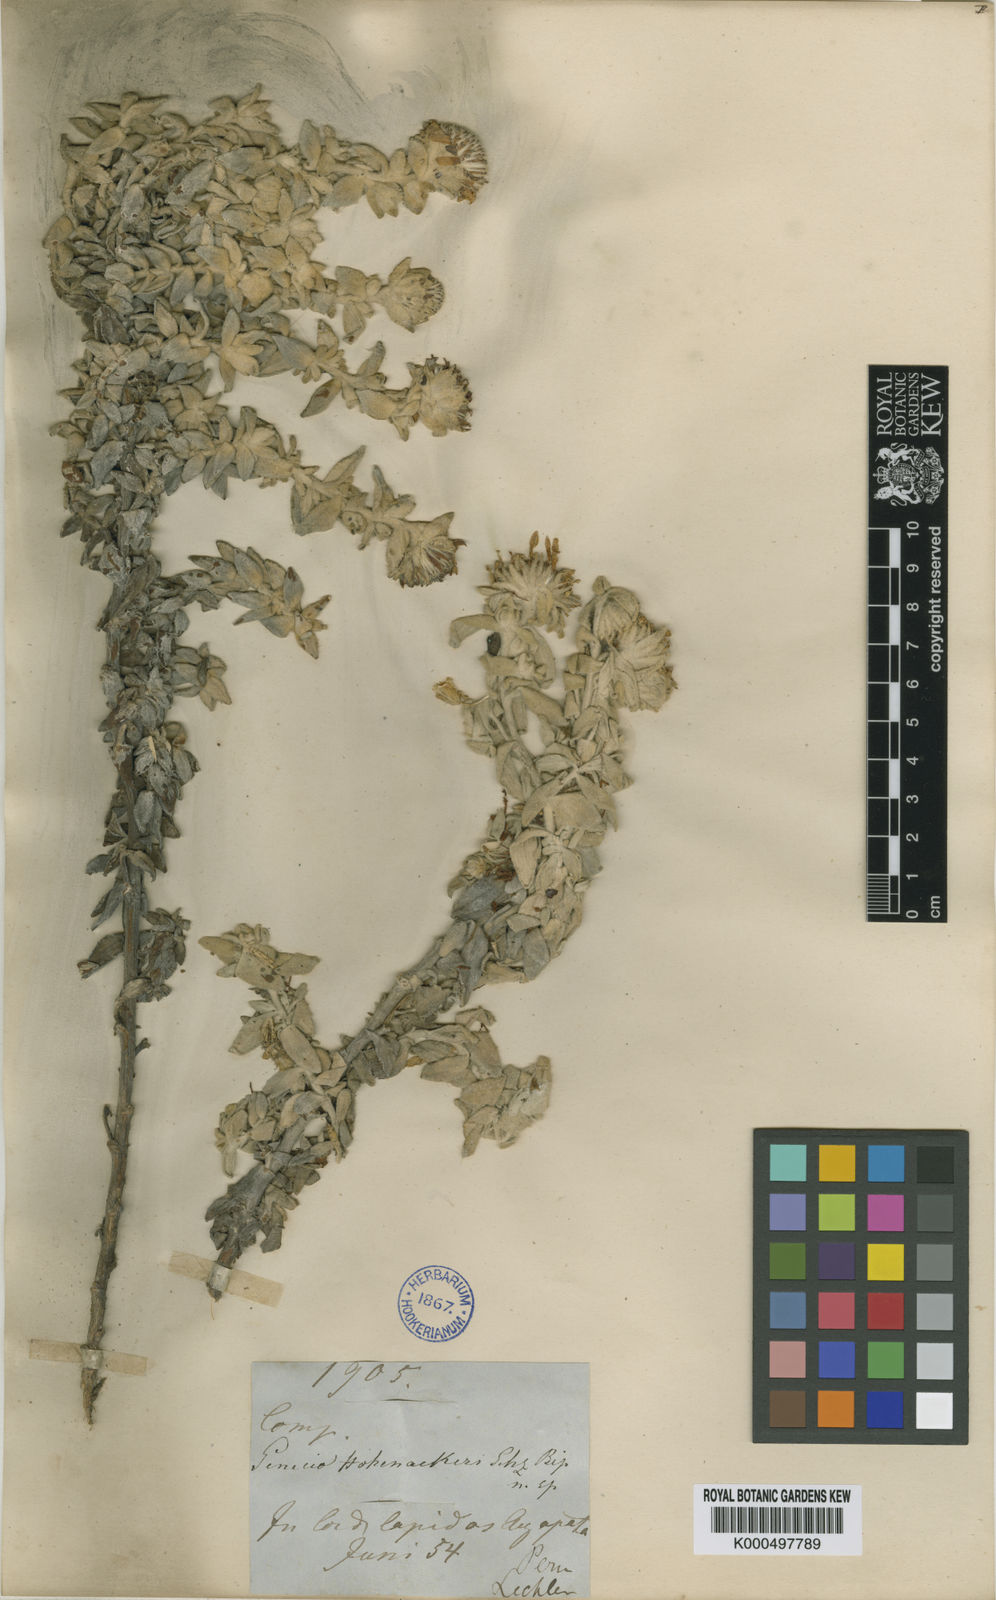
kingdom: Plantae
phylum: Tracheophyta
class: Magnoliopsida
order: Asterales
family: Asteraceae
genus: Senecio
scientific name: Senecio hohenackeri
